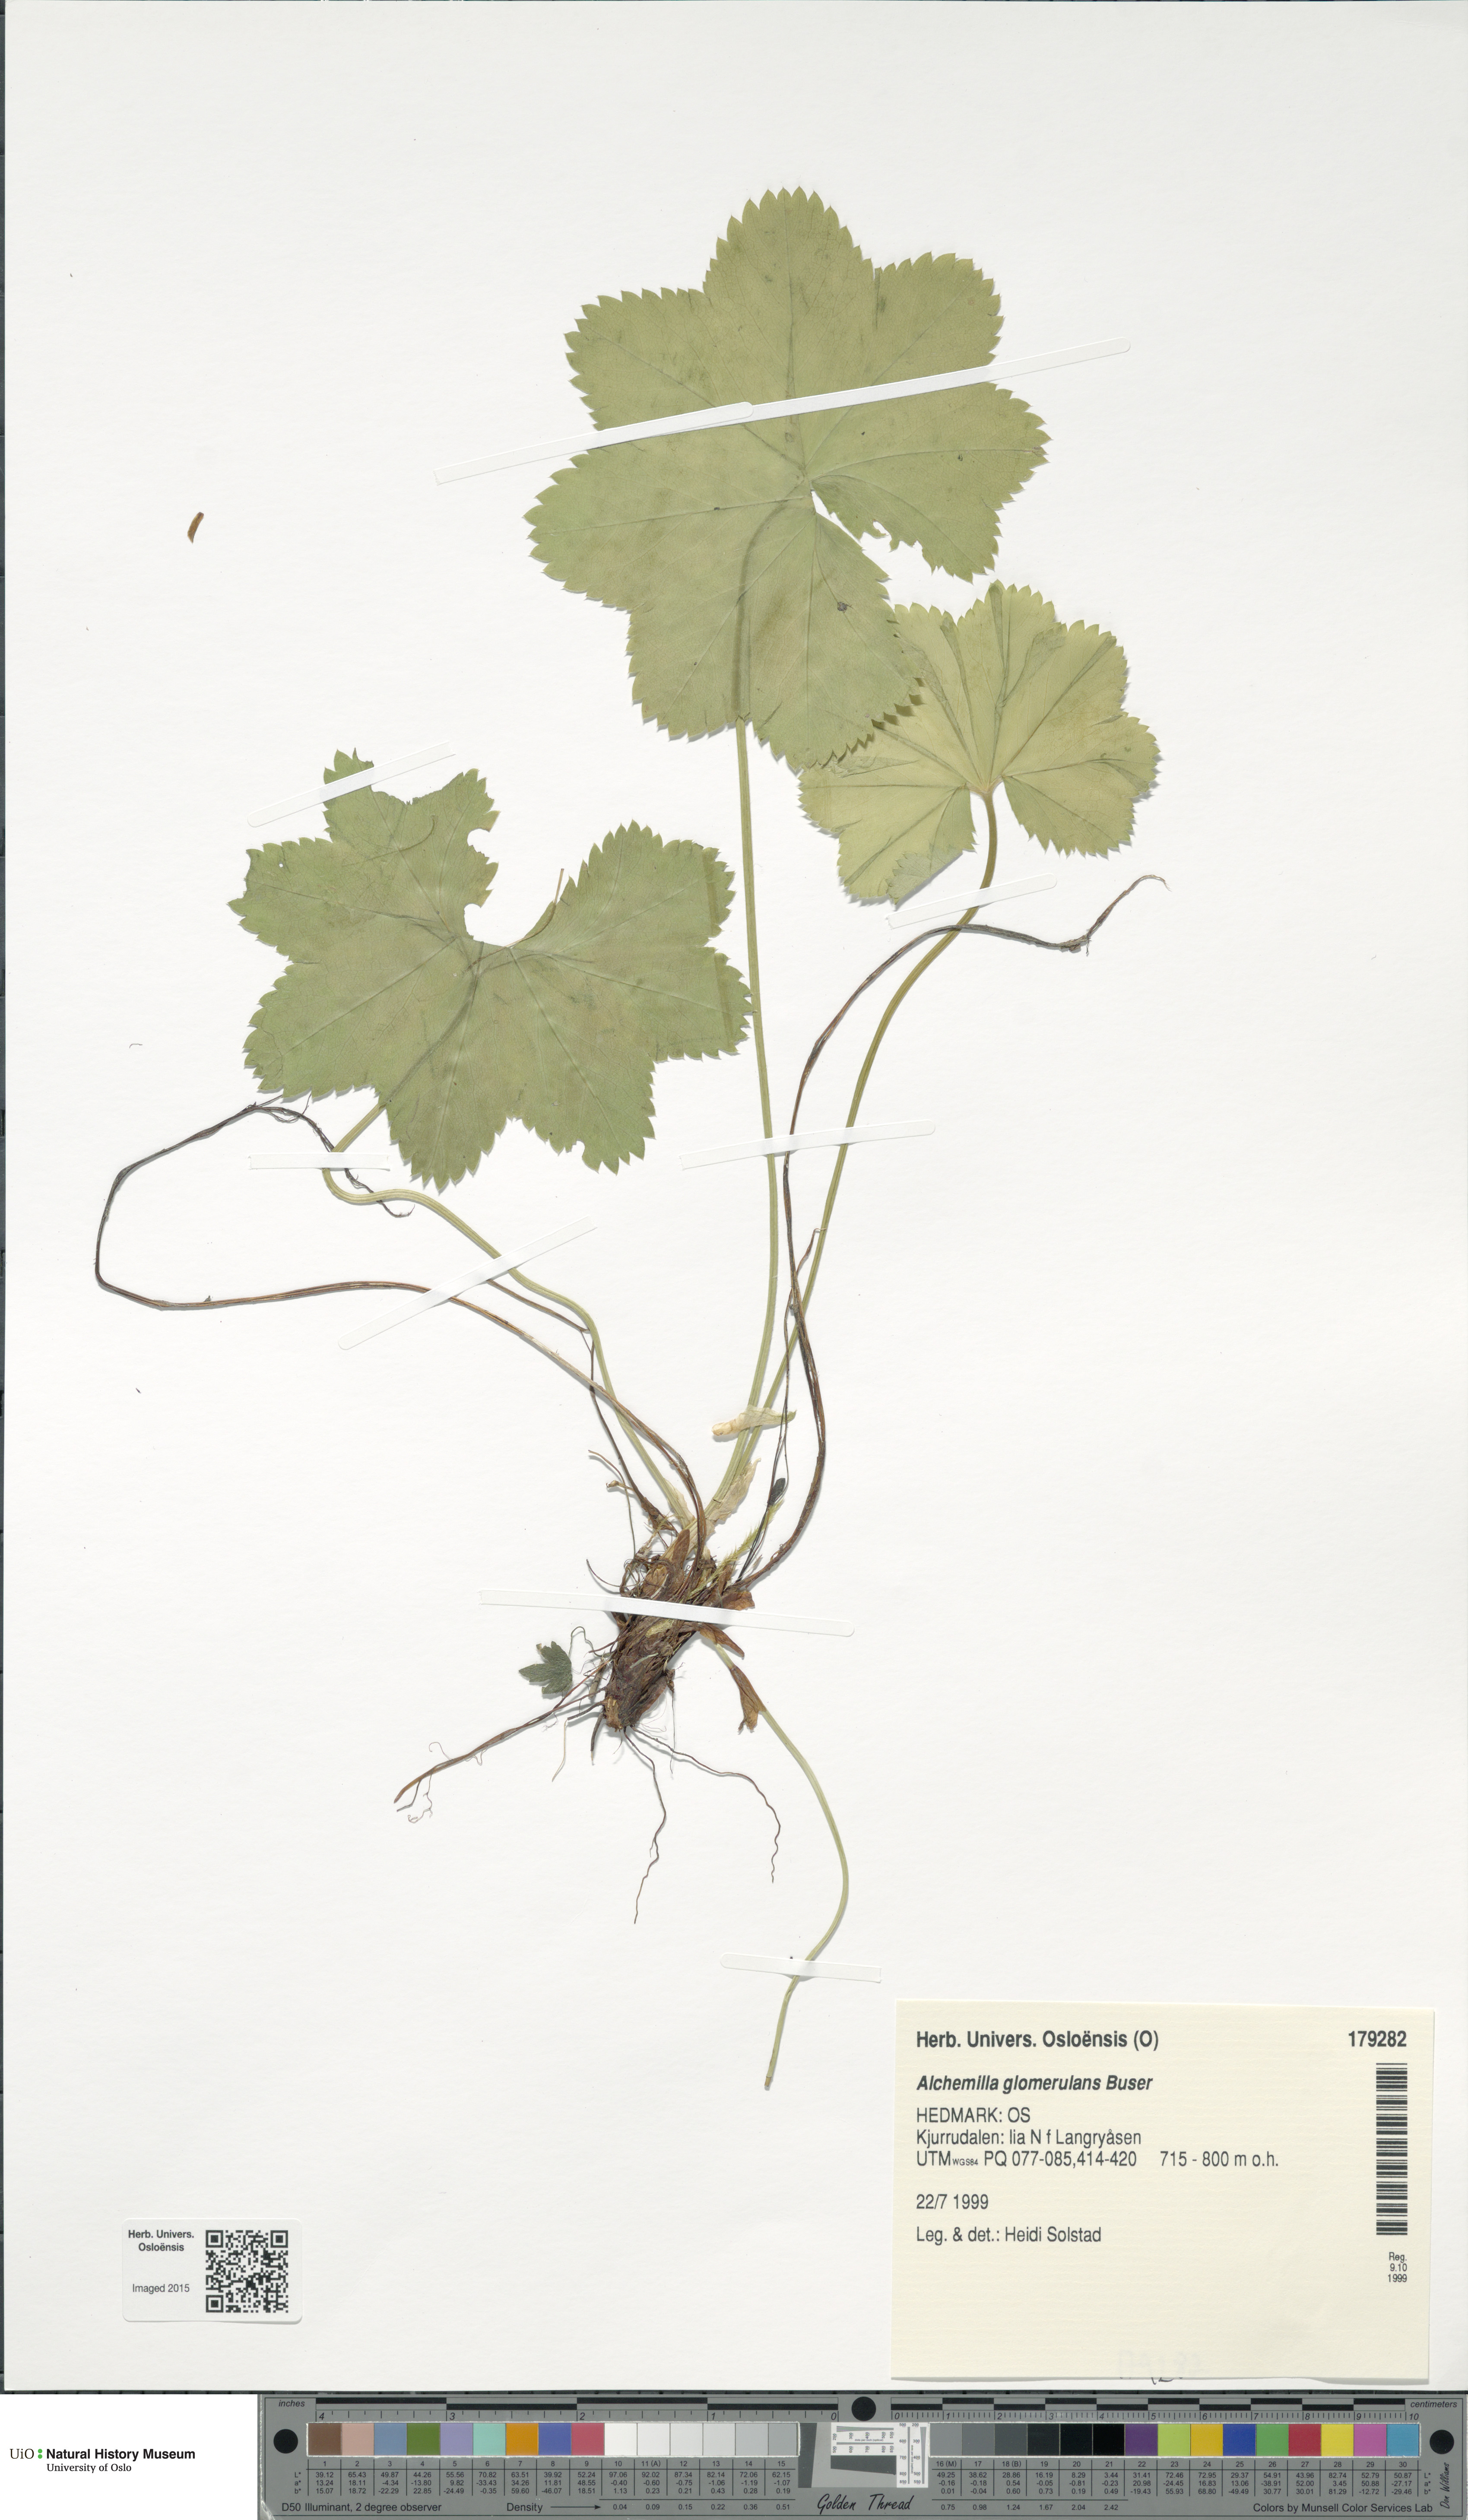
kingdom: Plantae
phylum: Tracheophyta
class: Magnoliopsida
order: Rosales
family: Rosaceae
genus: Alchemilla
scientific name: Alchemilla glomerulans
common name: Clustered lady's mantle
